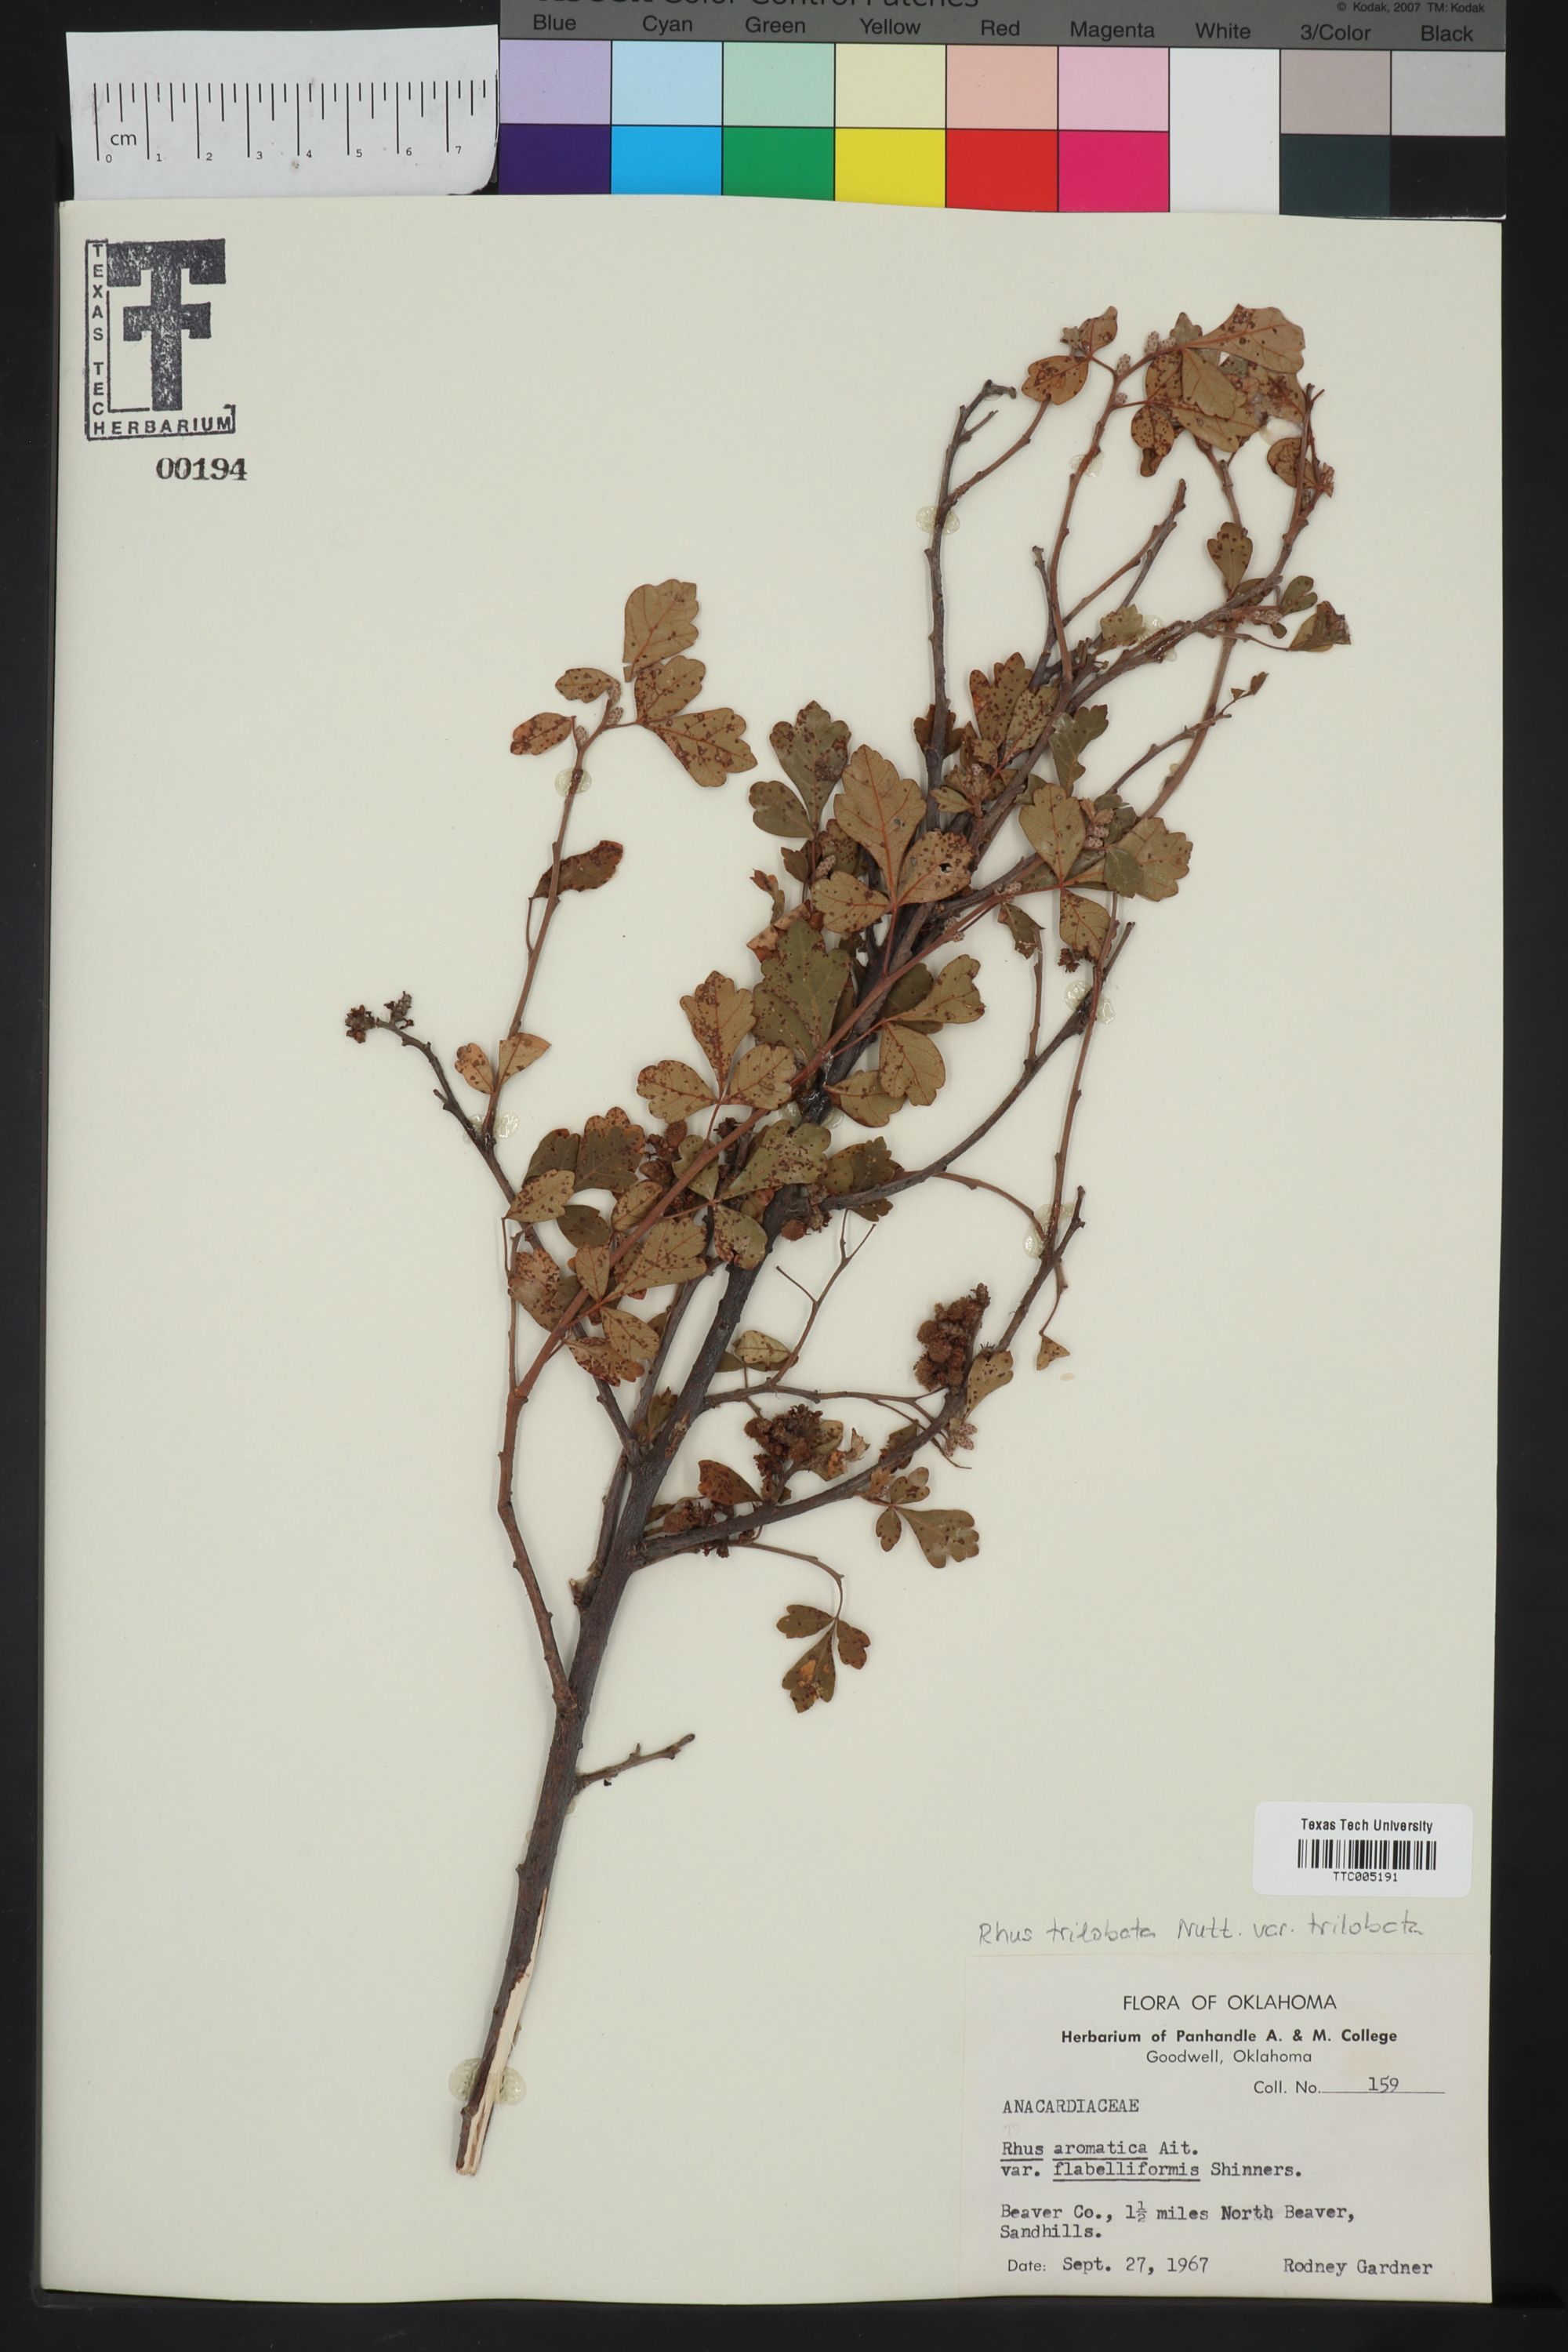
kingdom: Plantae
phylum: Tracheophyta
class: Magnoliopsida
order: Sapindales
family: Anacardiaceae
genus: Rhus
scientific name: Rhus trilobata
